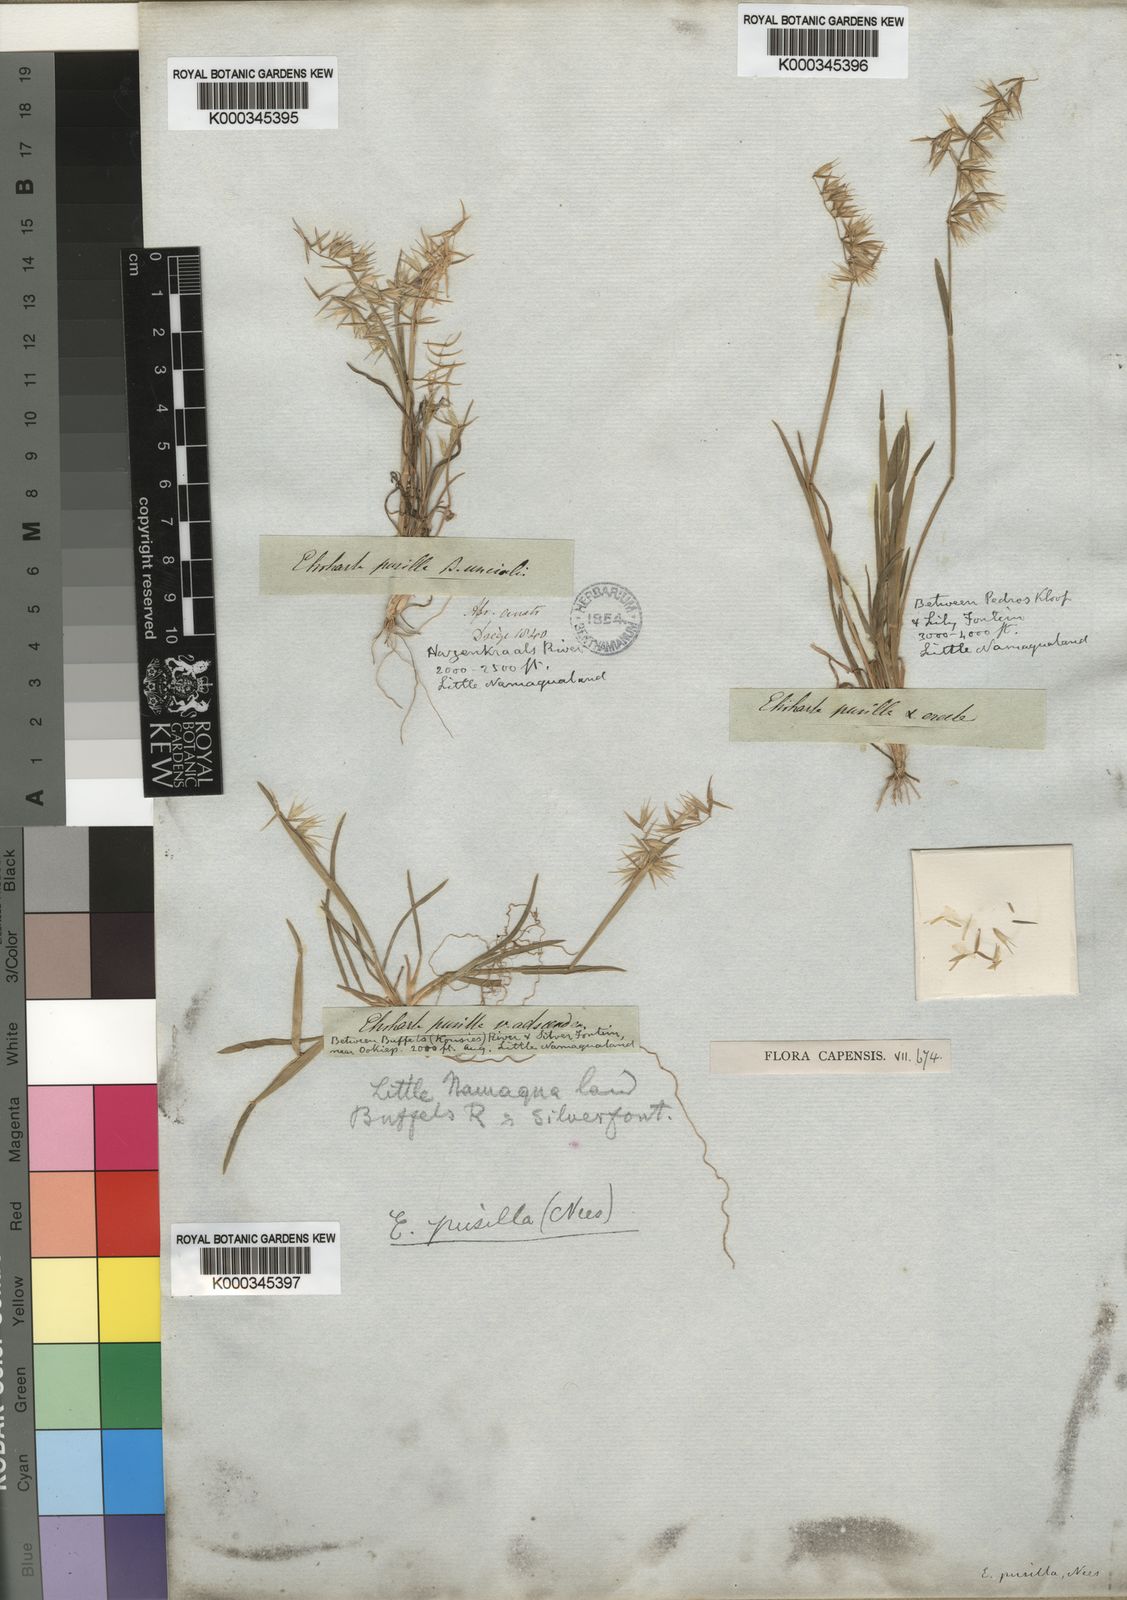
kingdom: Plantae
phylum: Tracheophyta
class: Liliopsida
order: Poales
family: Poaceae
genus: Ehrharta
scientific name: Ehrharta
